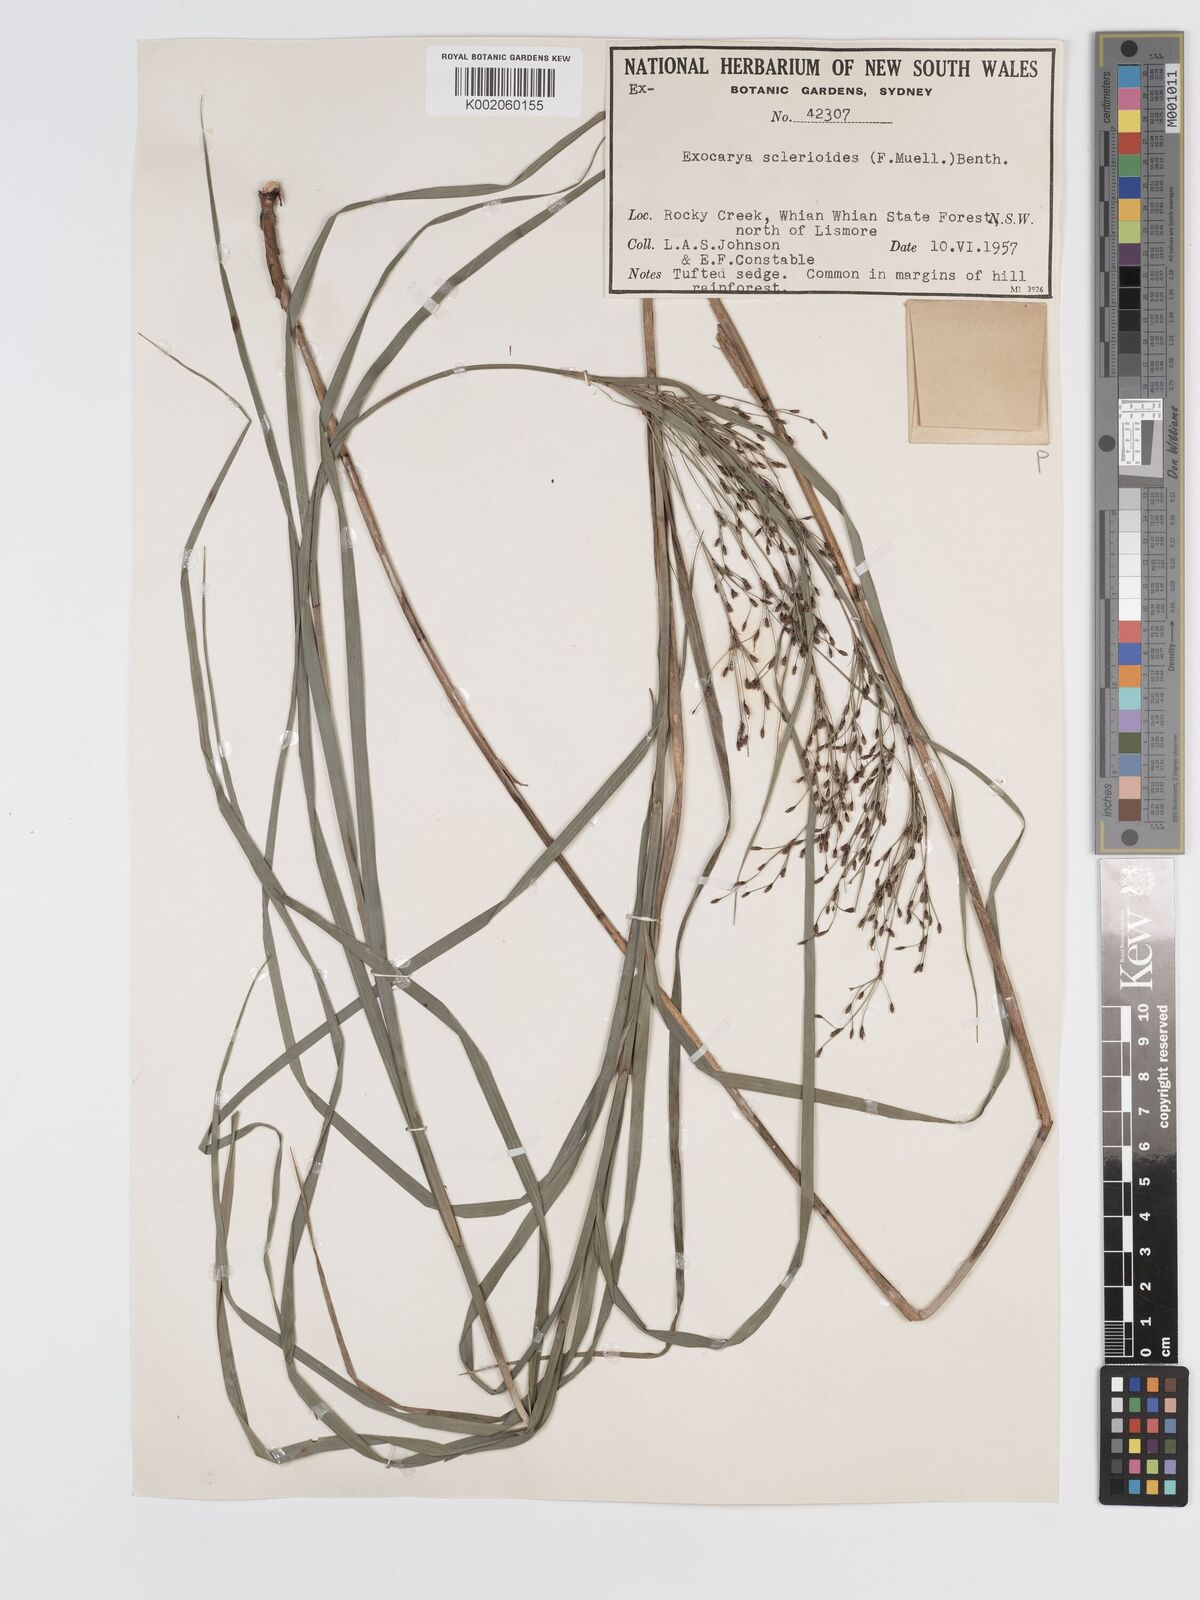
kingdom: Plantae
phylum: Tracheophyta
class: Liliopsida
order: Poales
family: Cyperaceae
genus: Exocarya
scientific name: Exocarya sclerioides
